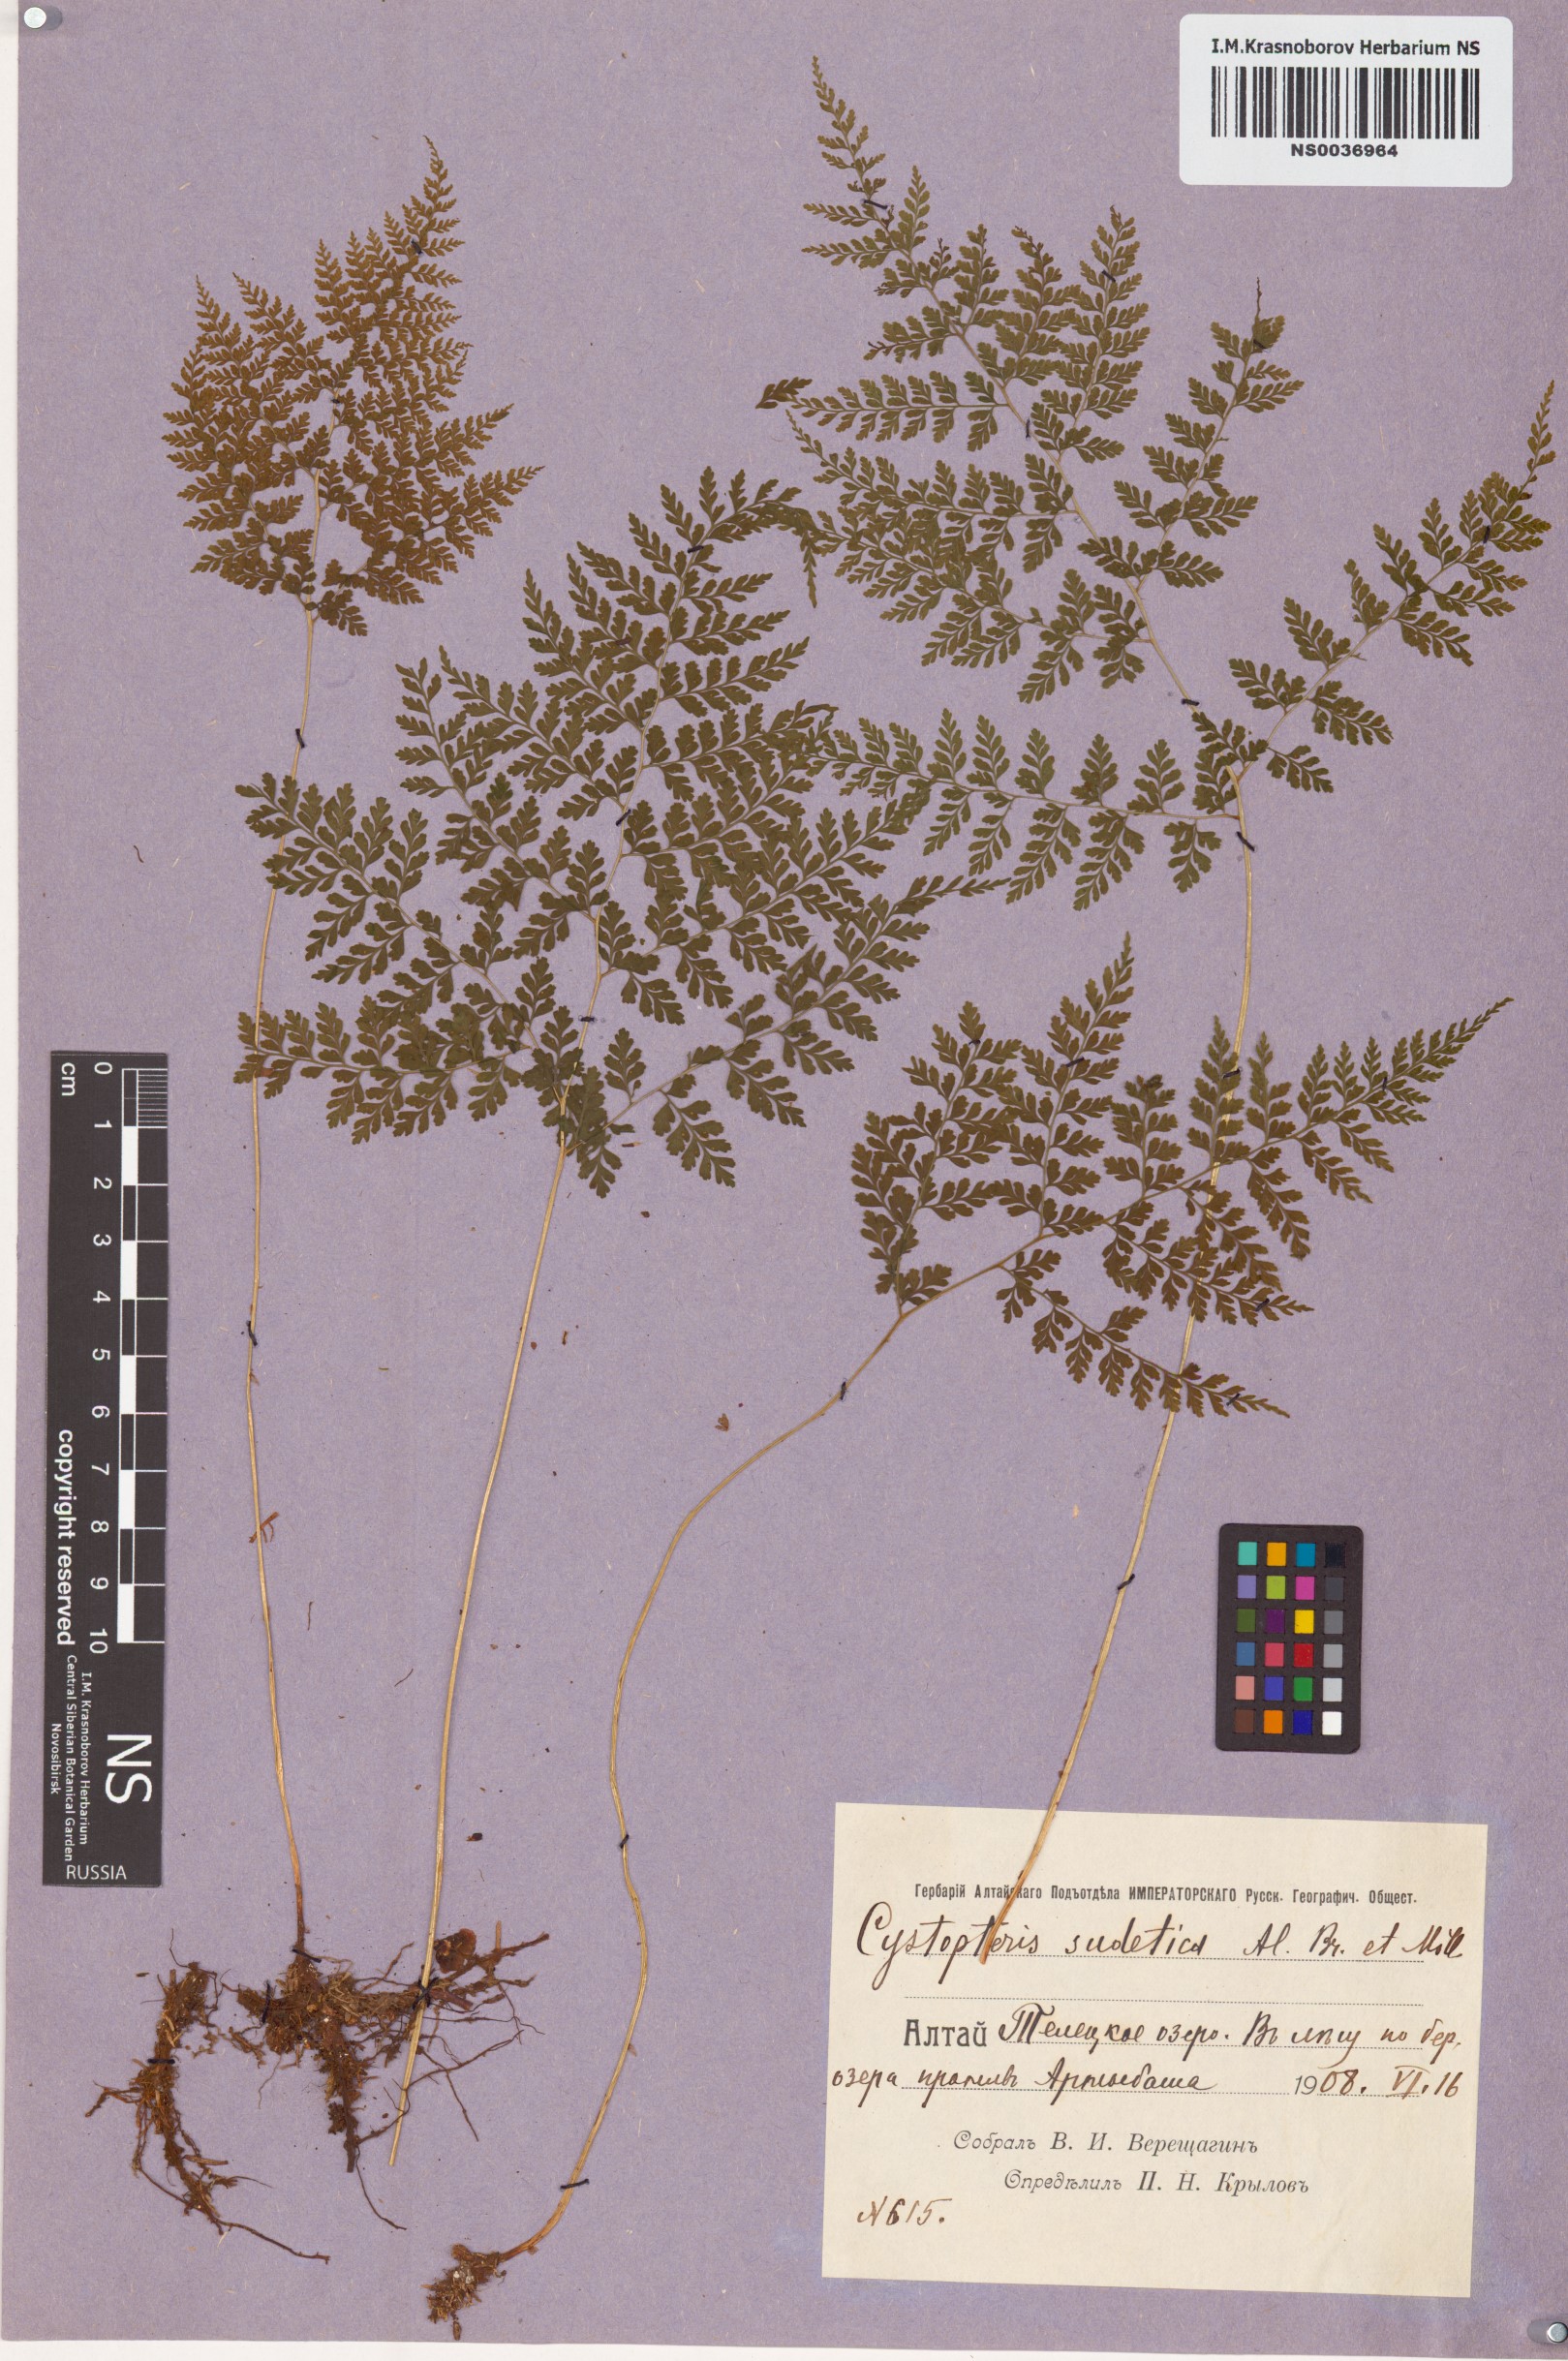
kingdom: Plantae
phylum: Tracheophyta
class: Polypodiopsida
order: Polypodiales
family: Cystopteridaceae
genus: Cystopteris
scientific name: Cystopteris sudetica
